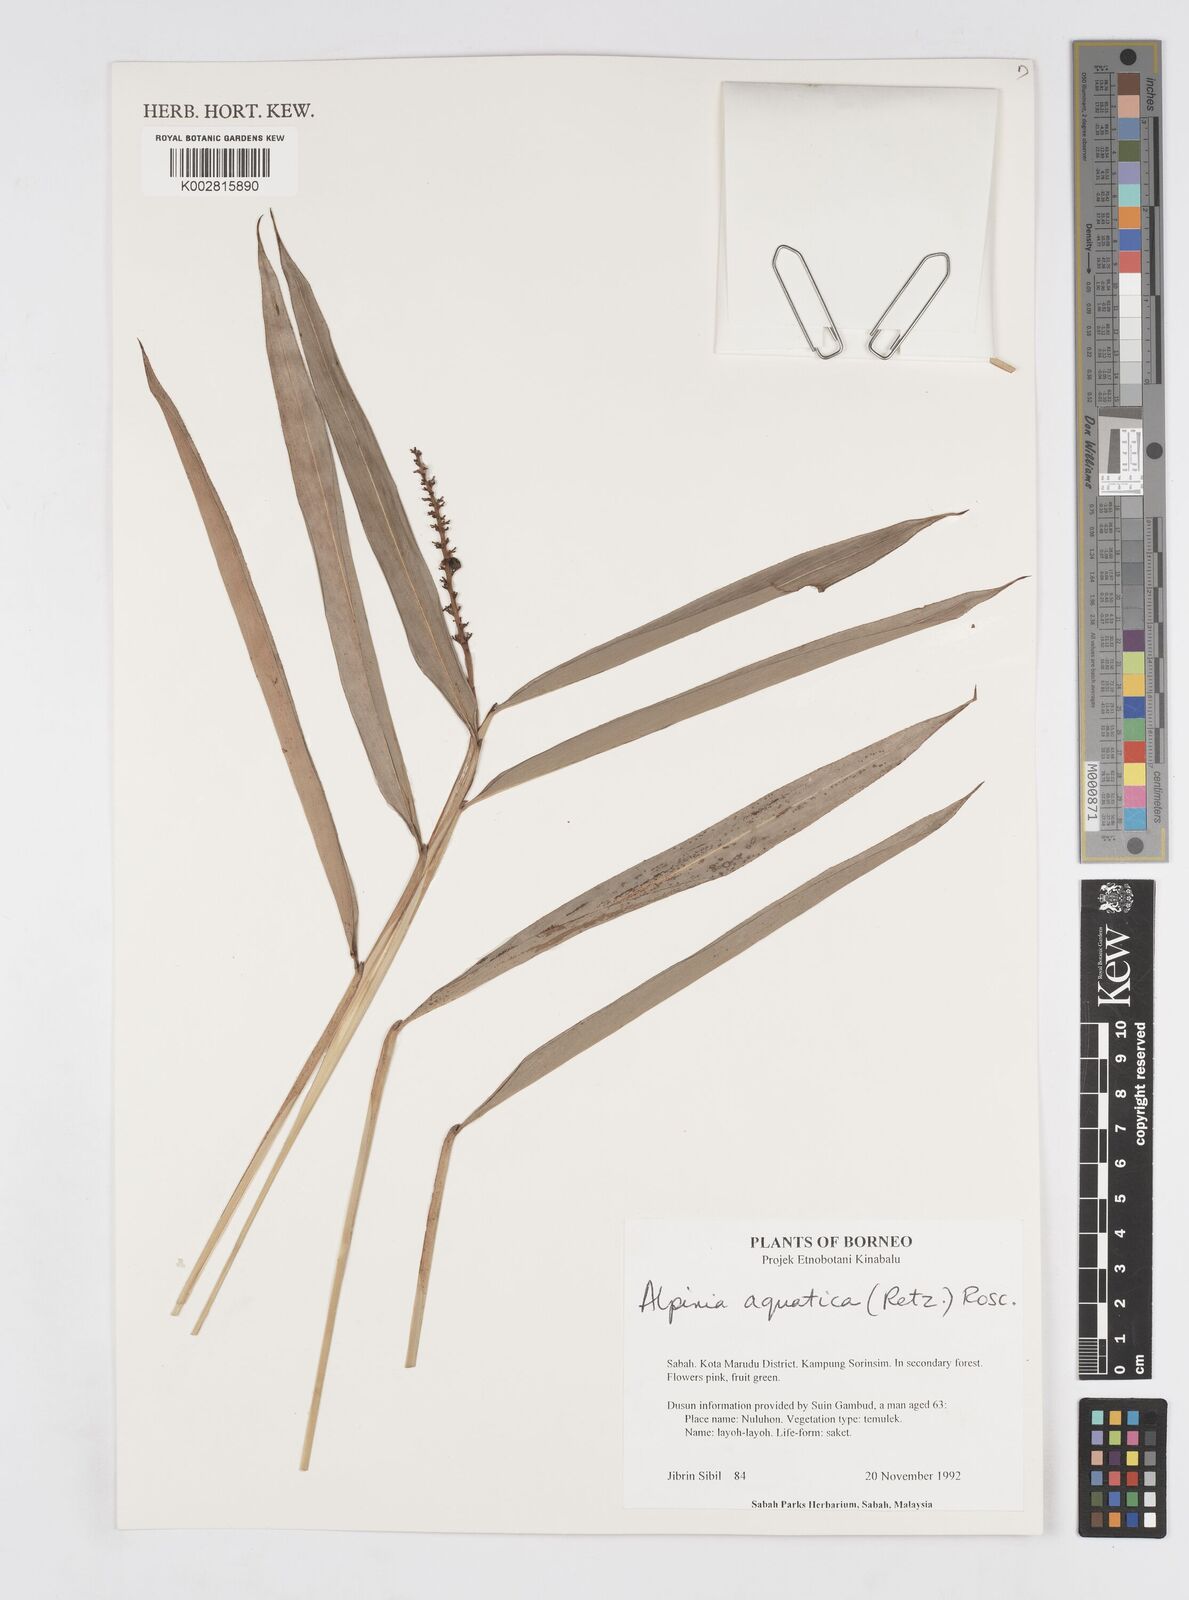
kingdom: Plantae
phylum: Tracheophyta
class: Liliopsida
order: Zingiberales
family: Zingiberaceae
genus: Alpinia
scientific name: Alpinia aquatica
